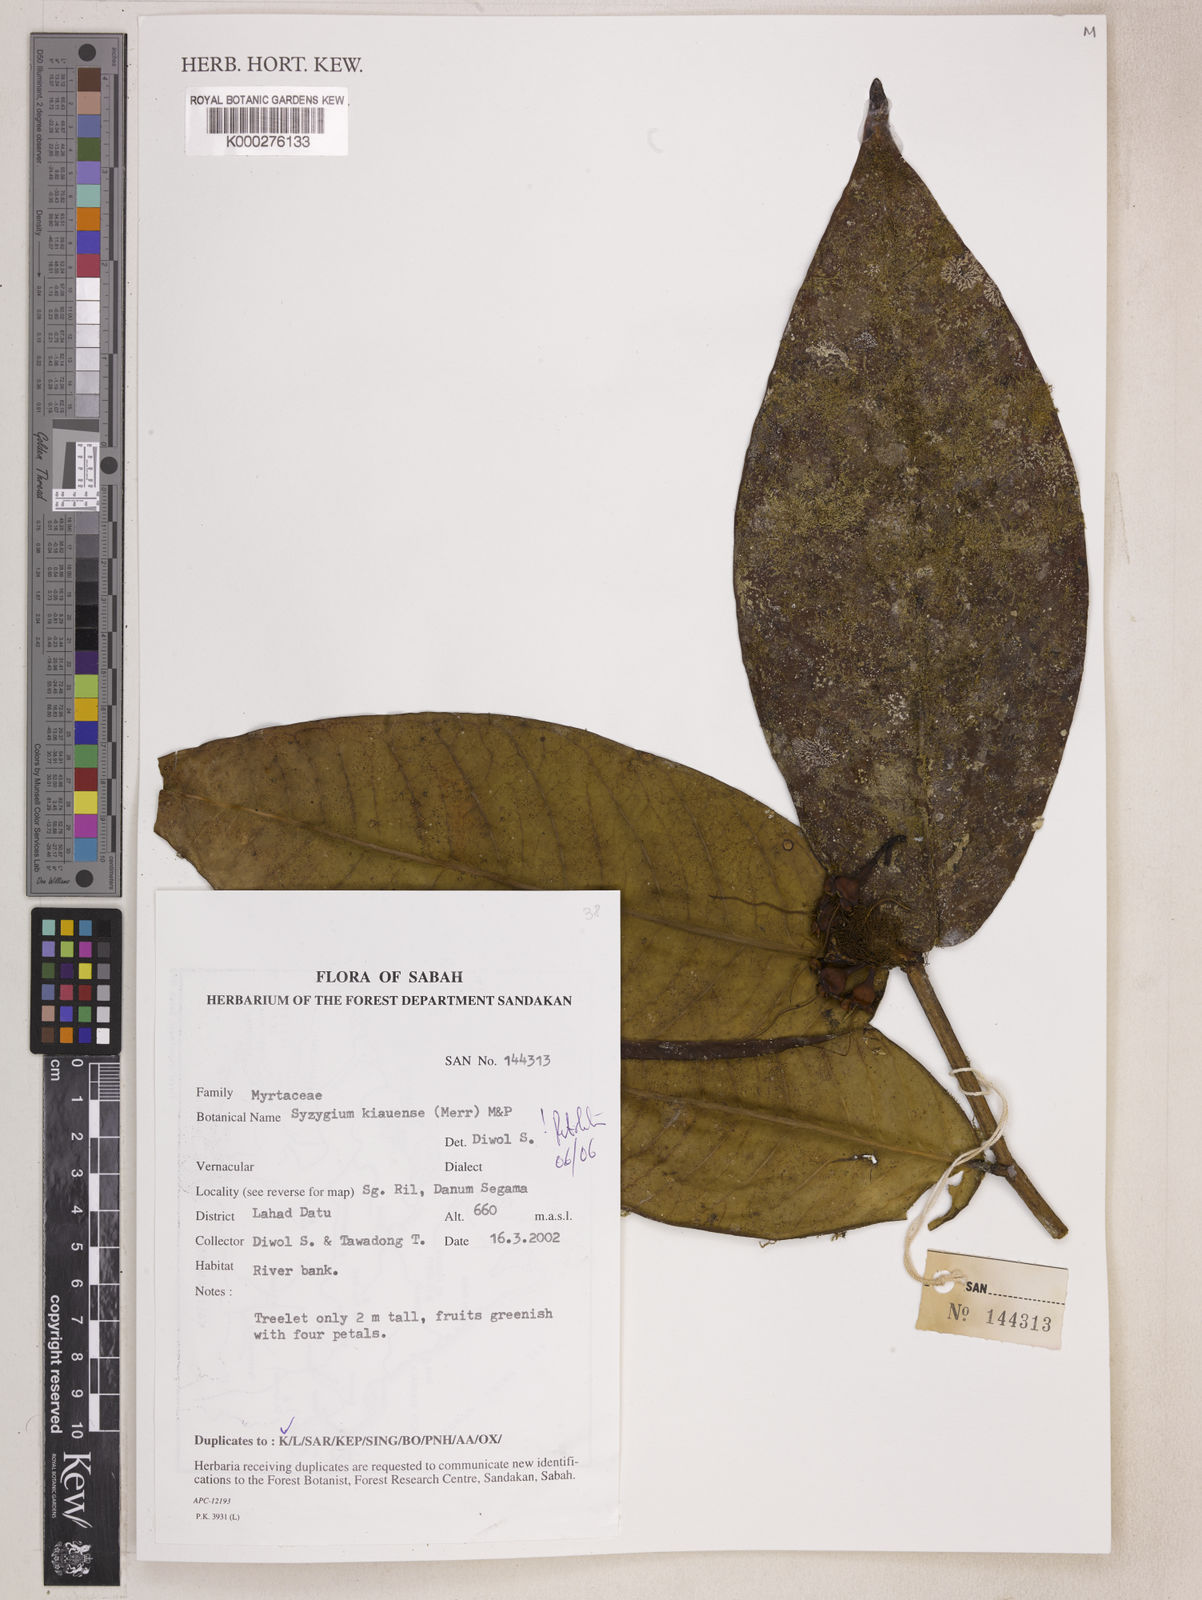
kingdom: Plantae
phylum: Tracheophyta
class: Magnoliopsida
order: Myrtales
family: Myrtaceae
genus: Syzygium
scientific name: Syzygium kiauense
